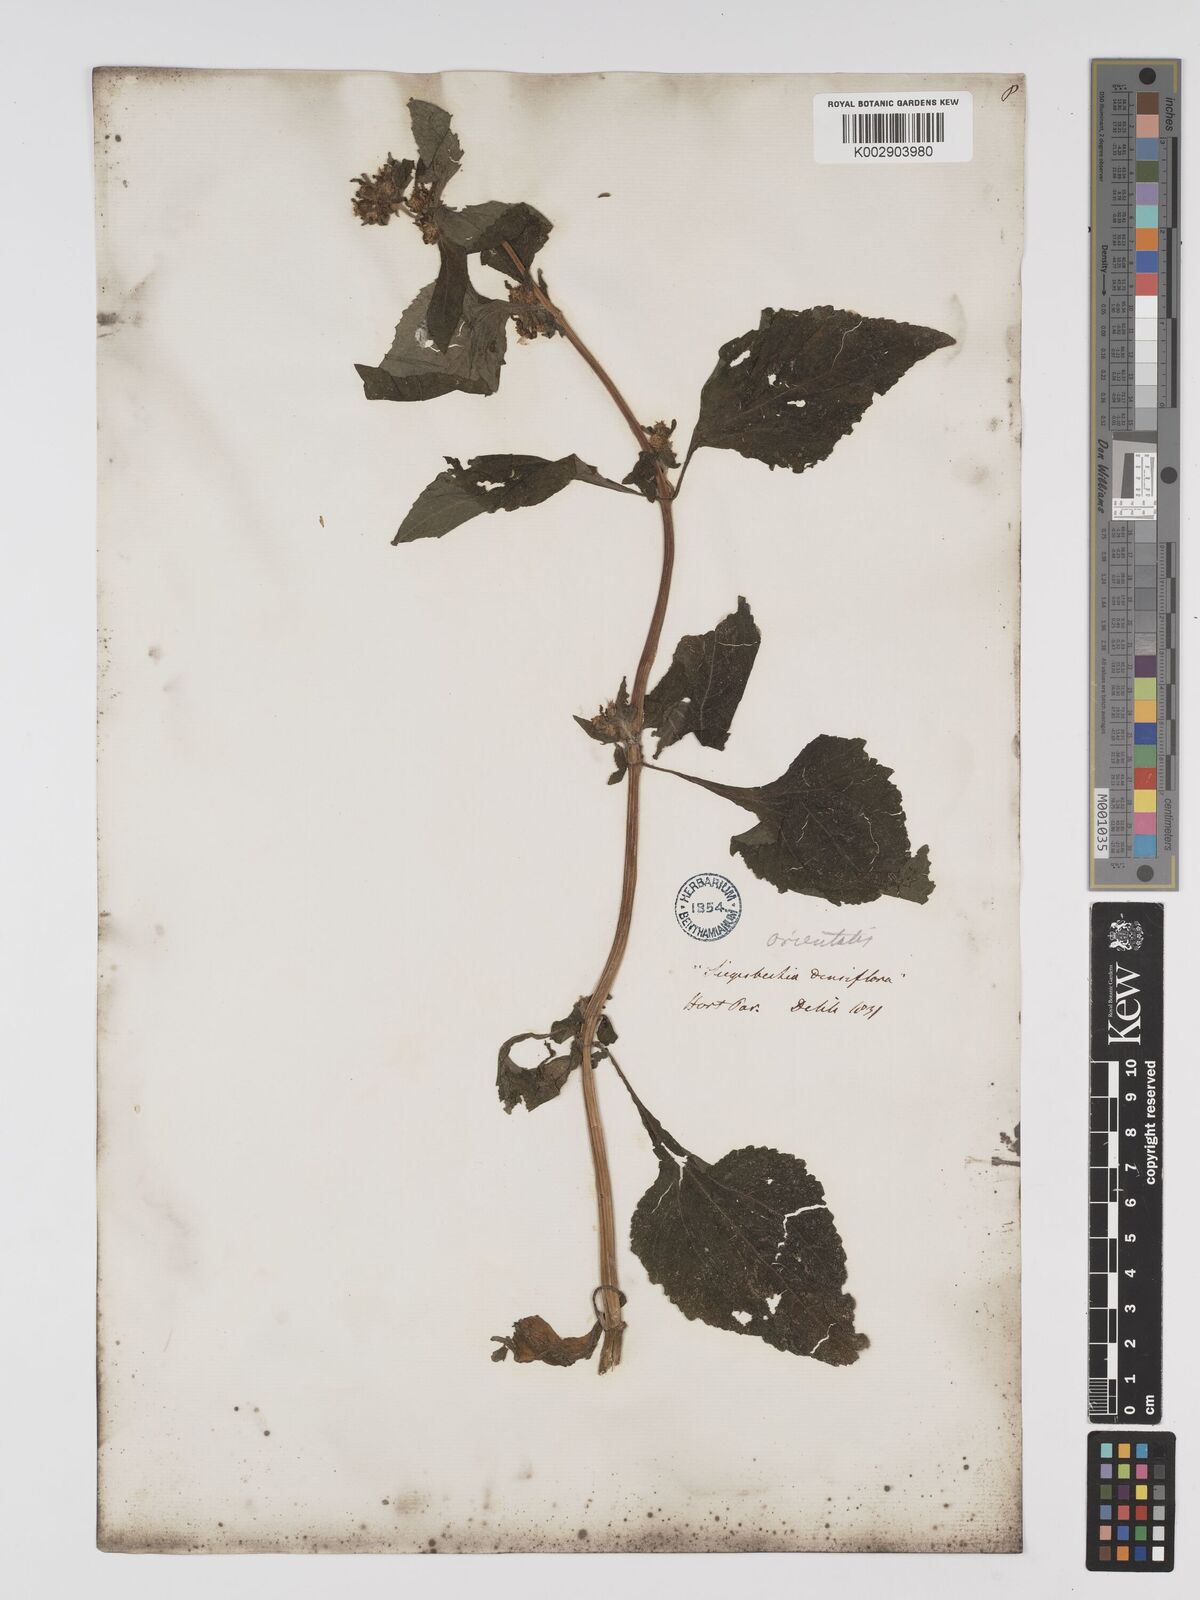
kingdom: Plantae
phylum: Tracheophyta
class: Magnoliopsida
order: Asterales
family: Asteraceae
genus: Sigesbeckia
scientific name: Sigesbeckia orientalis
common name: Eastern st paul's-wort
